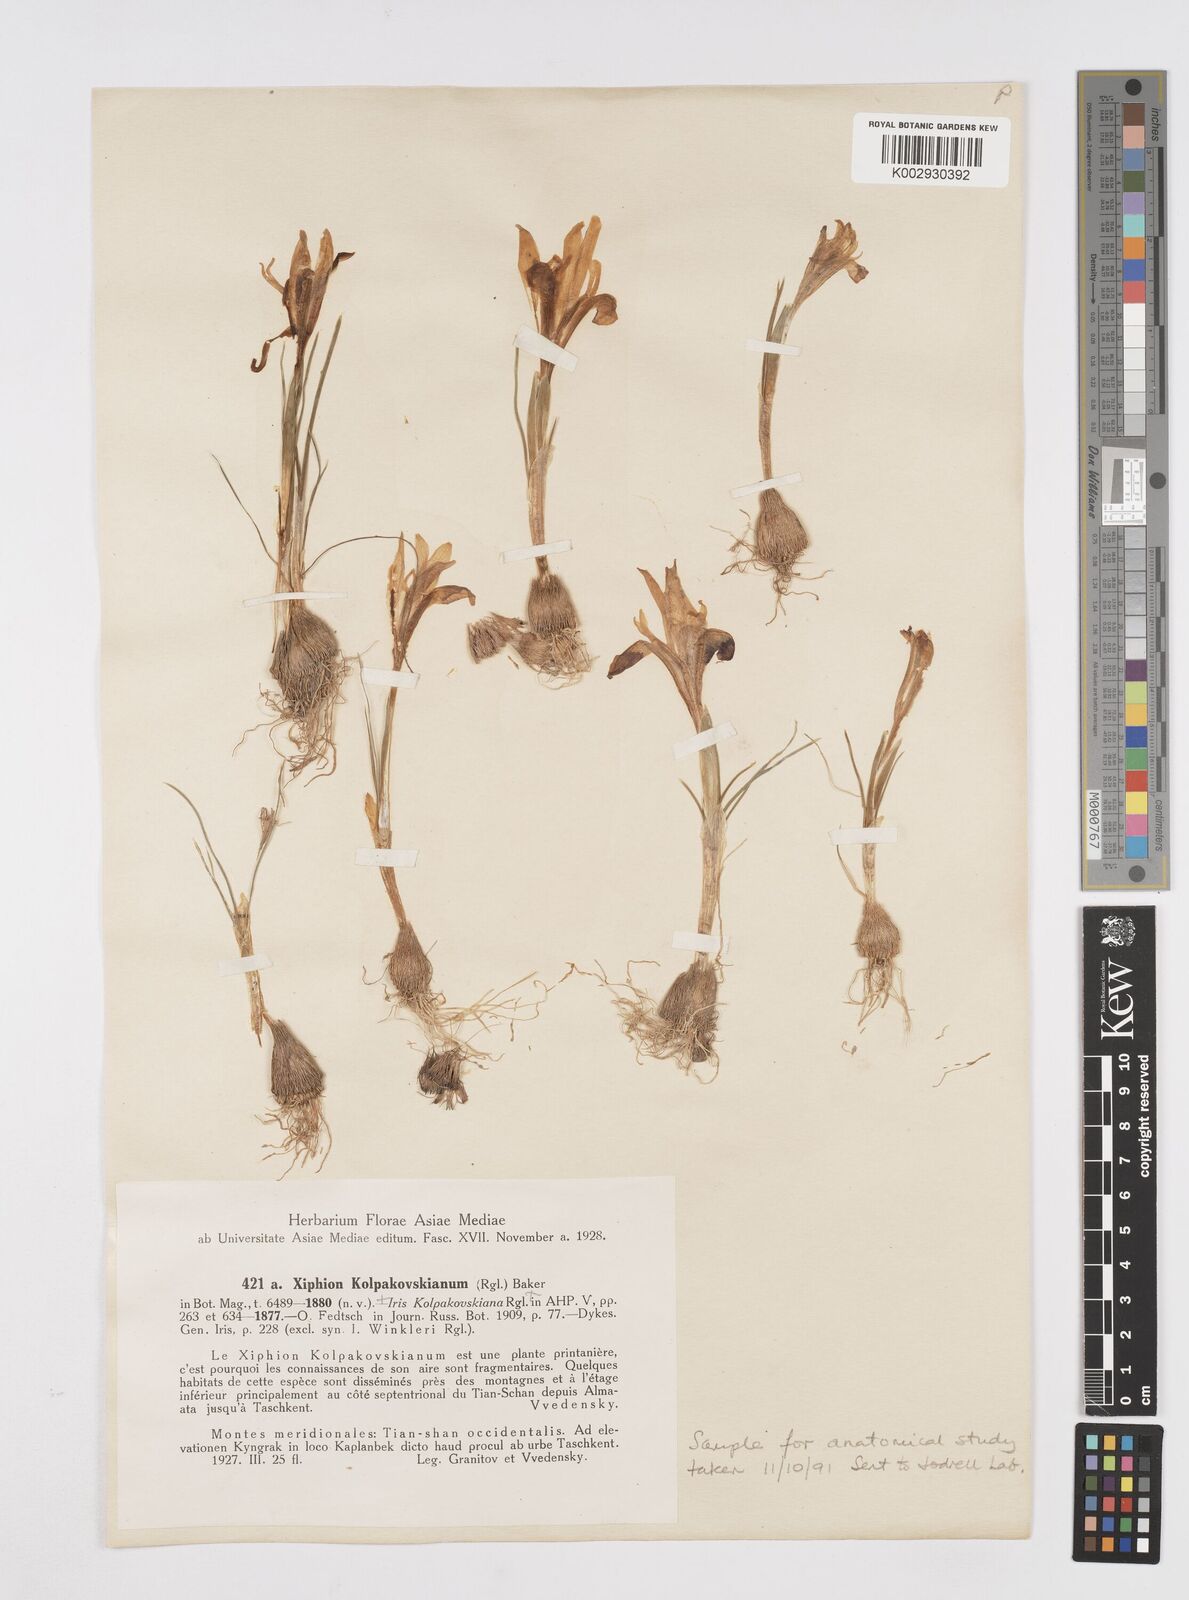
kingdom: Plantae
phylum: Tracheophyta
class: Liliopsida
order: Asparagales
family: Iridaceae
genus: Iris
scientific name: Iris kolpakowskiana
